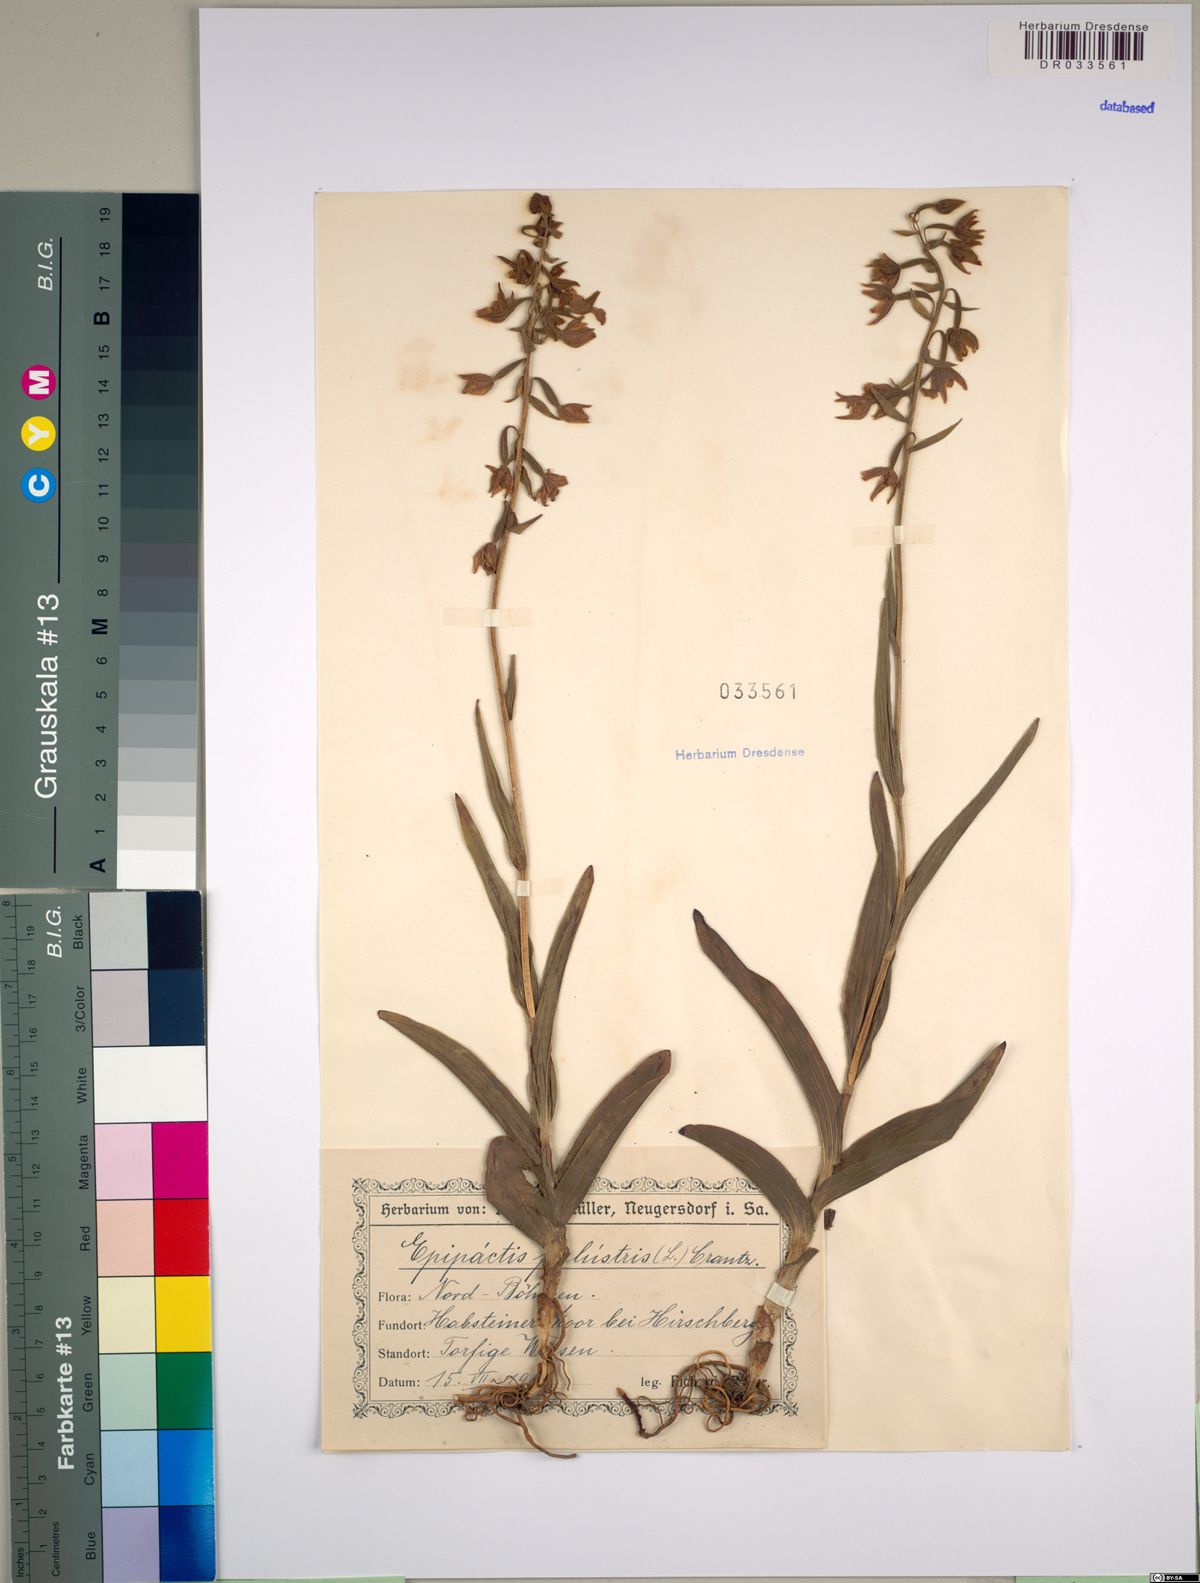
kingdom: Plantae
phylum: Tracheophyta
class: Liliopsida
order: Asparagales
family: Orchidaceae
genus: Epipactis
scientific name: Epipactis palustris
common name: Marsh helleborine
